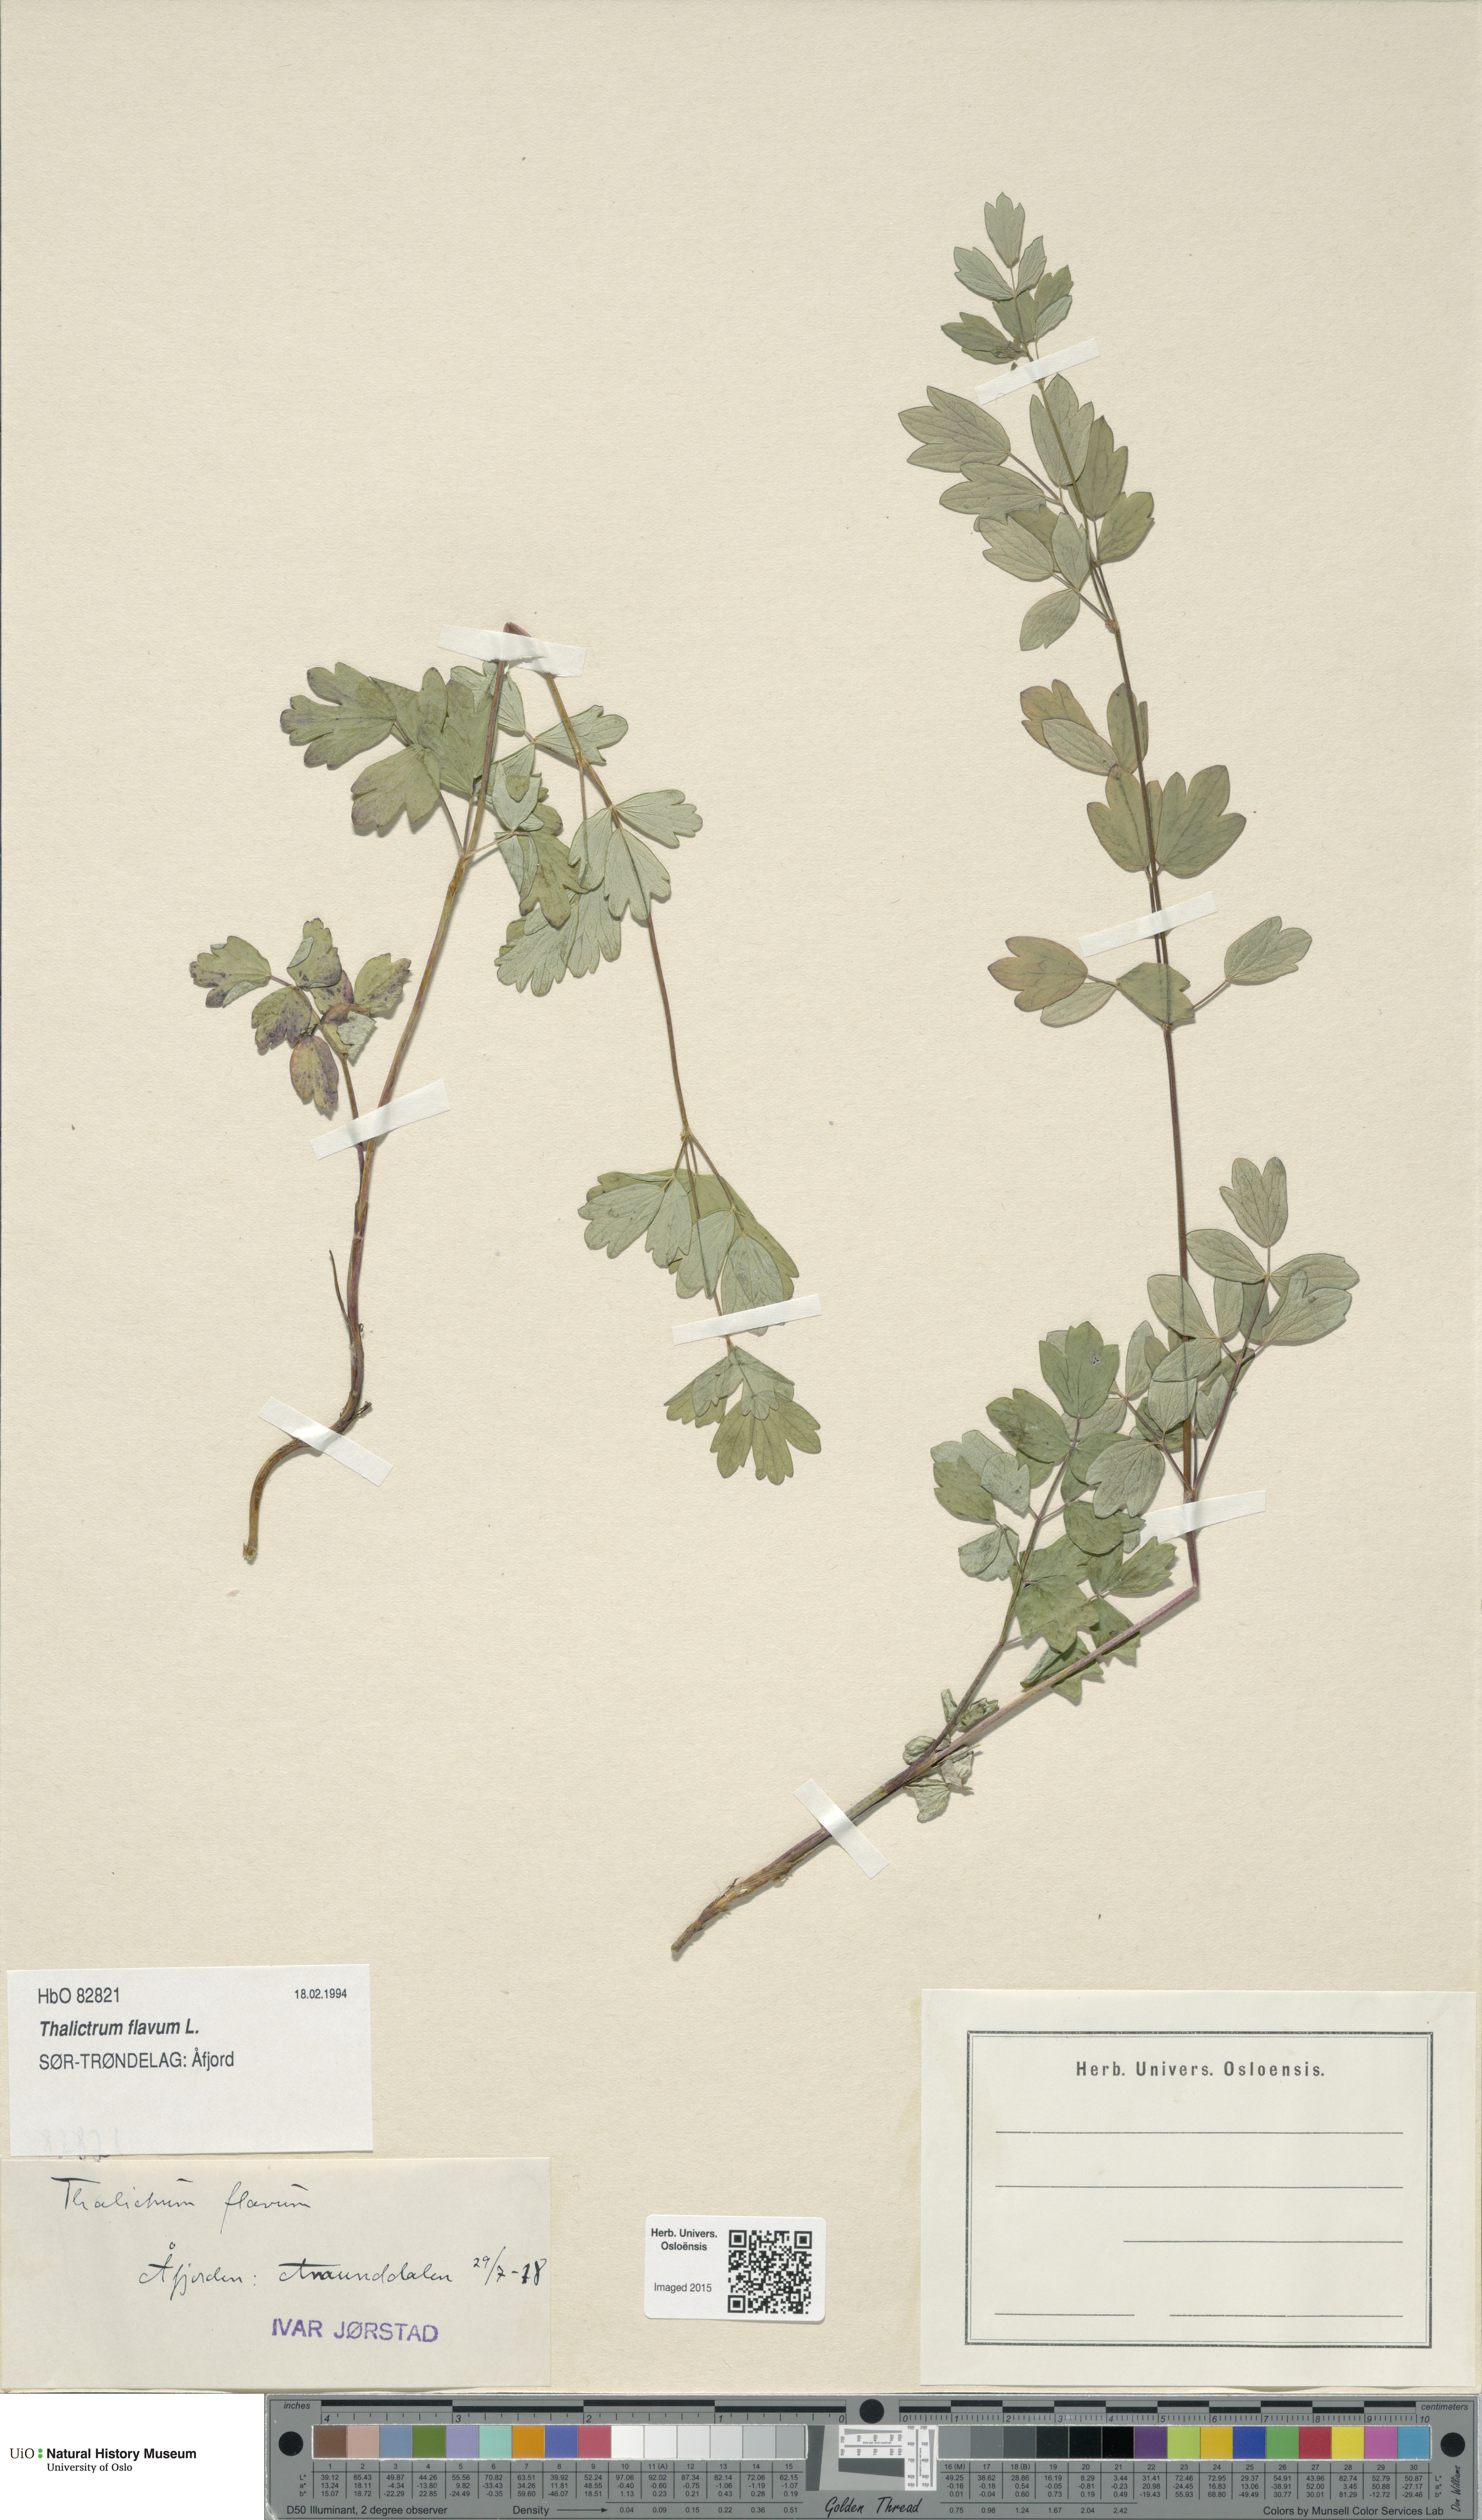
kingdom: Plantae
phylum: Tracheophyta
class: Magnoliopsida
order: Ranunculales
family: Ranunculaceae
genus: Thalictrum
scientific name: Thalictrum flavum
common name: Common meadow-rue
